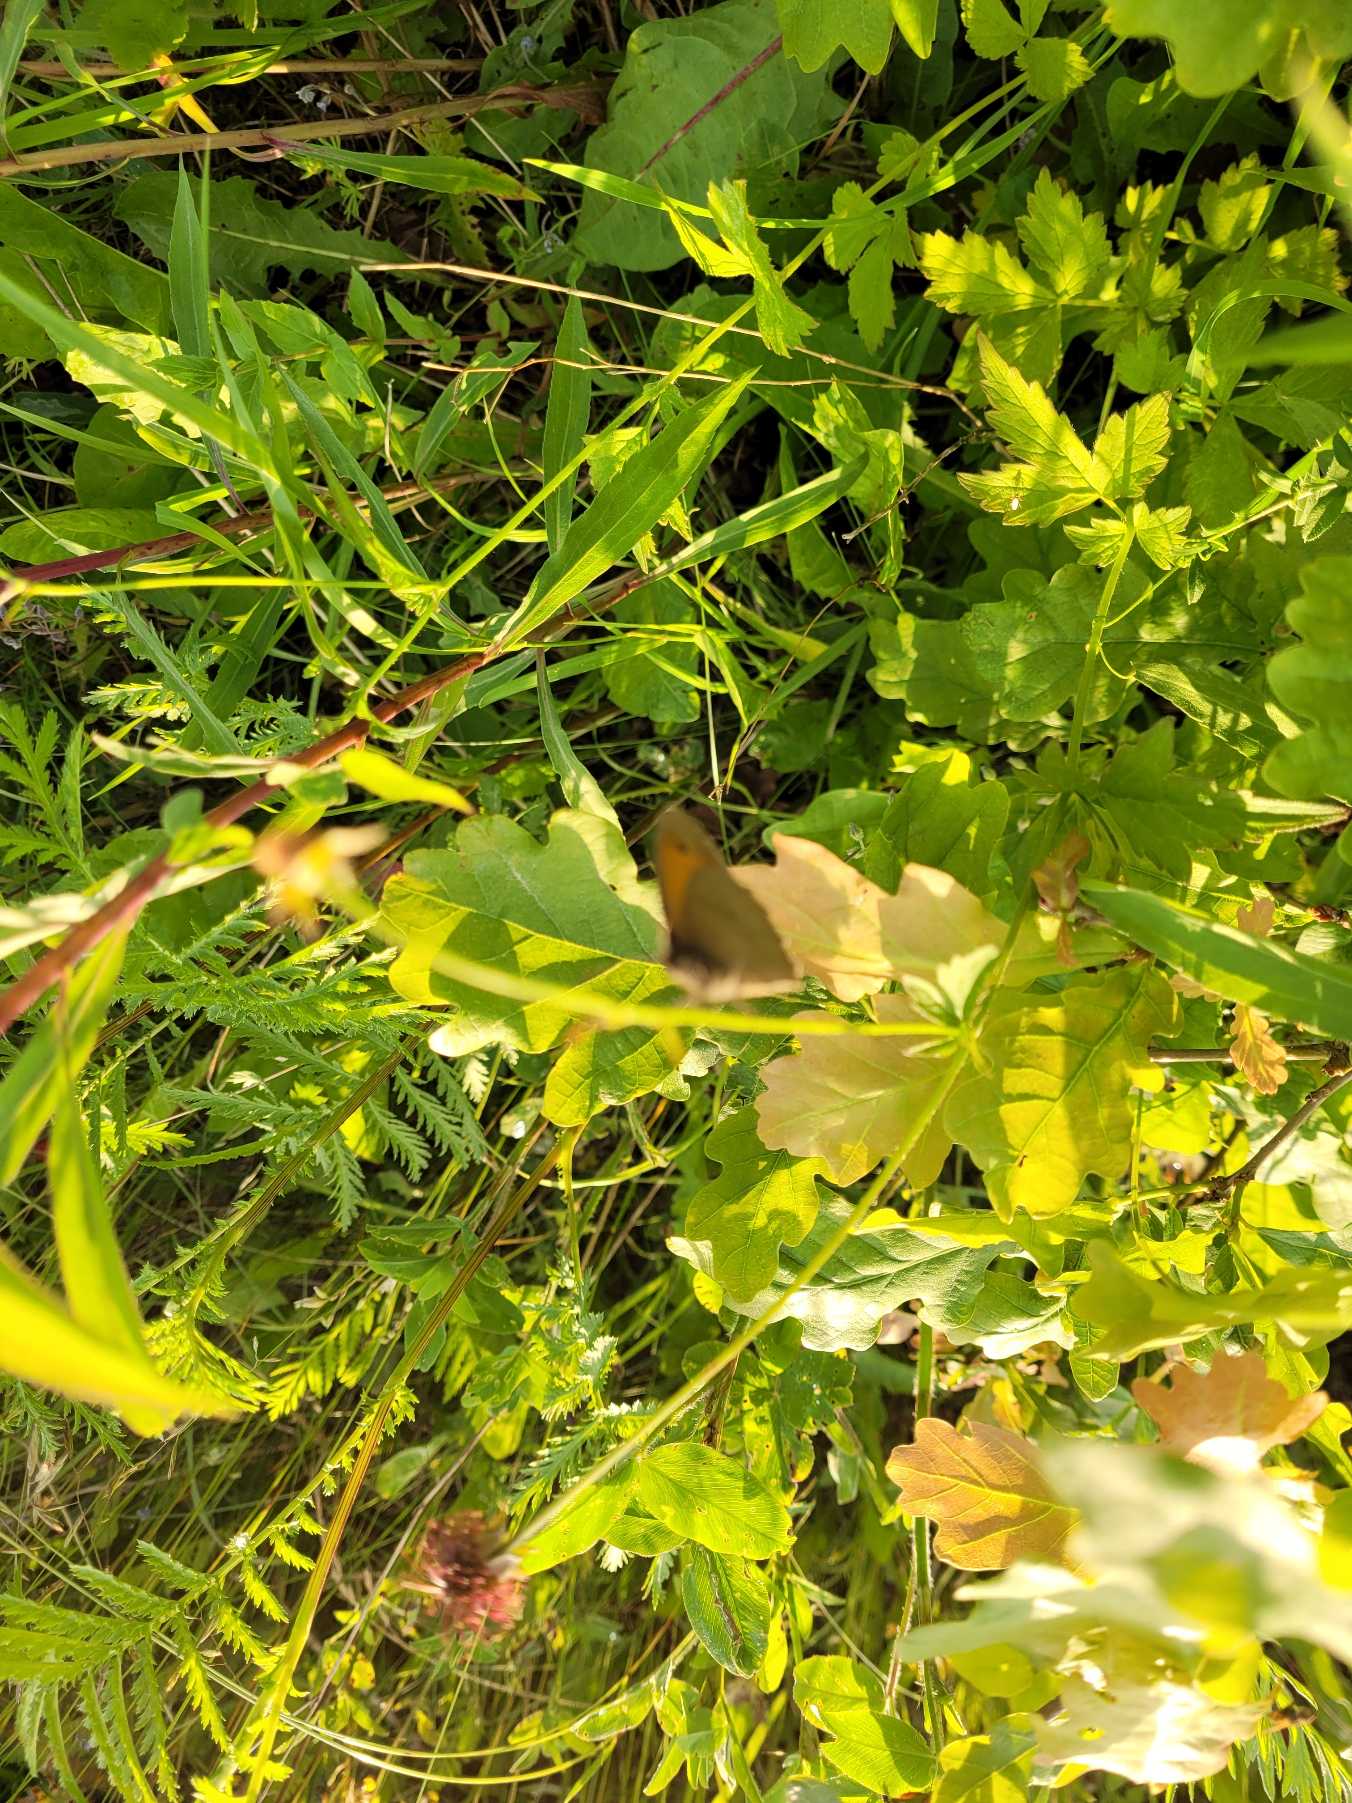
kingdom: Animalia
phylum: Arthropoda
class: Insecta
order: Lepidoptera
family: Nymphalidae
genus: Maniola
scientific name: Maniola jurtina
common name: Græsrandøje
